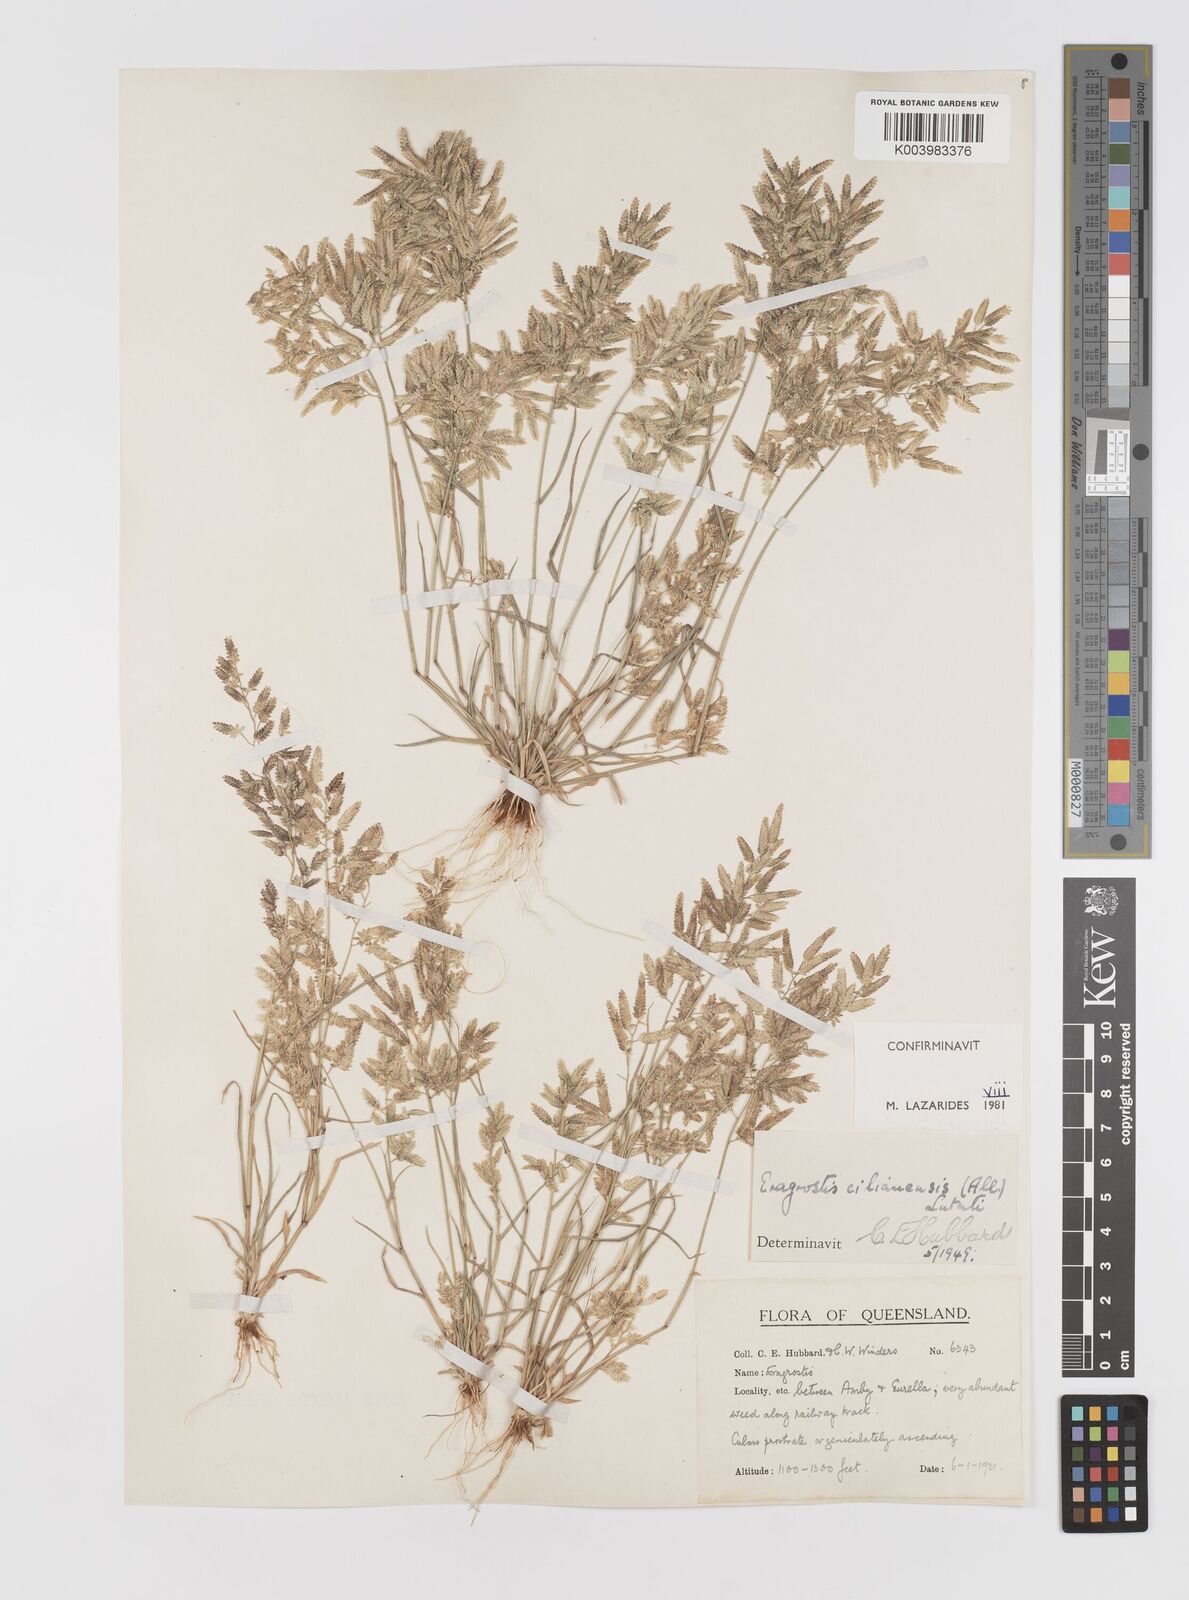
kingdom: Plantae
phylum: Tracheophyta
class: Liliopsida
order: Poales
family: Poaceae
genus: Eragrostis
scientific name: Eragrostis cilianensis
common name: Stinkgrass
